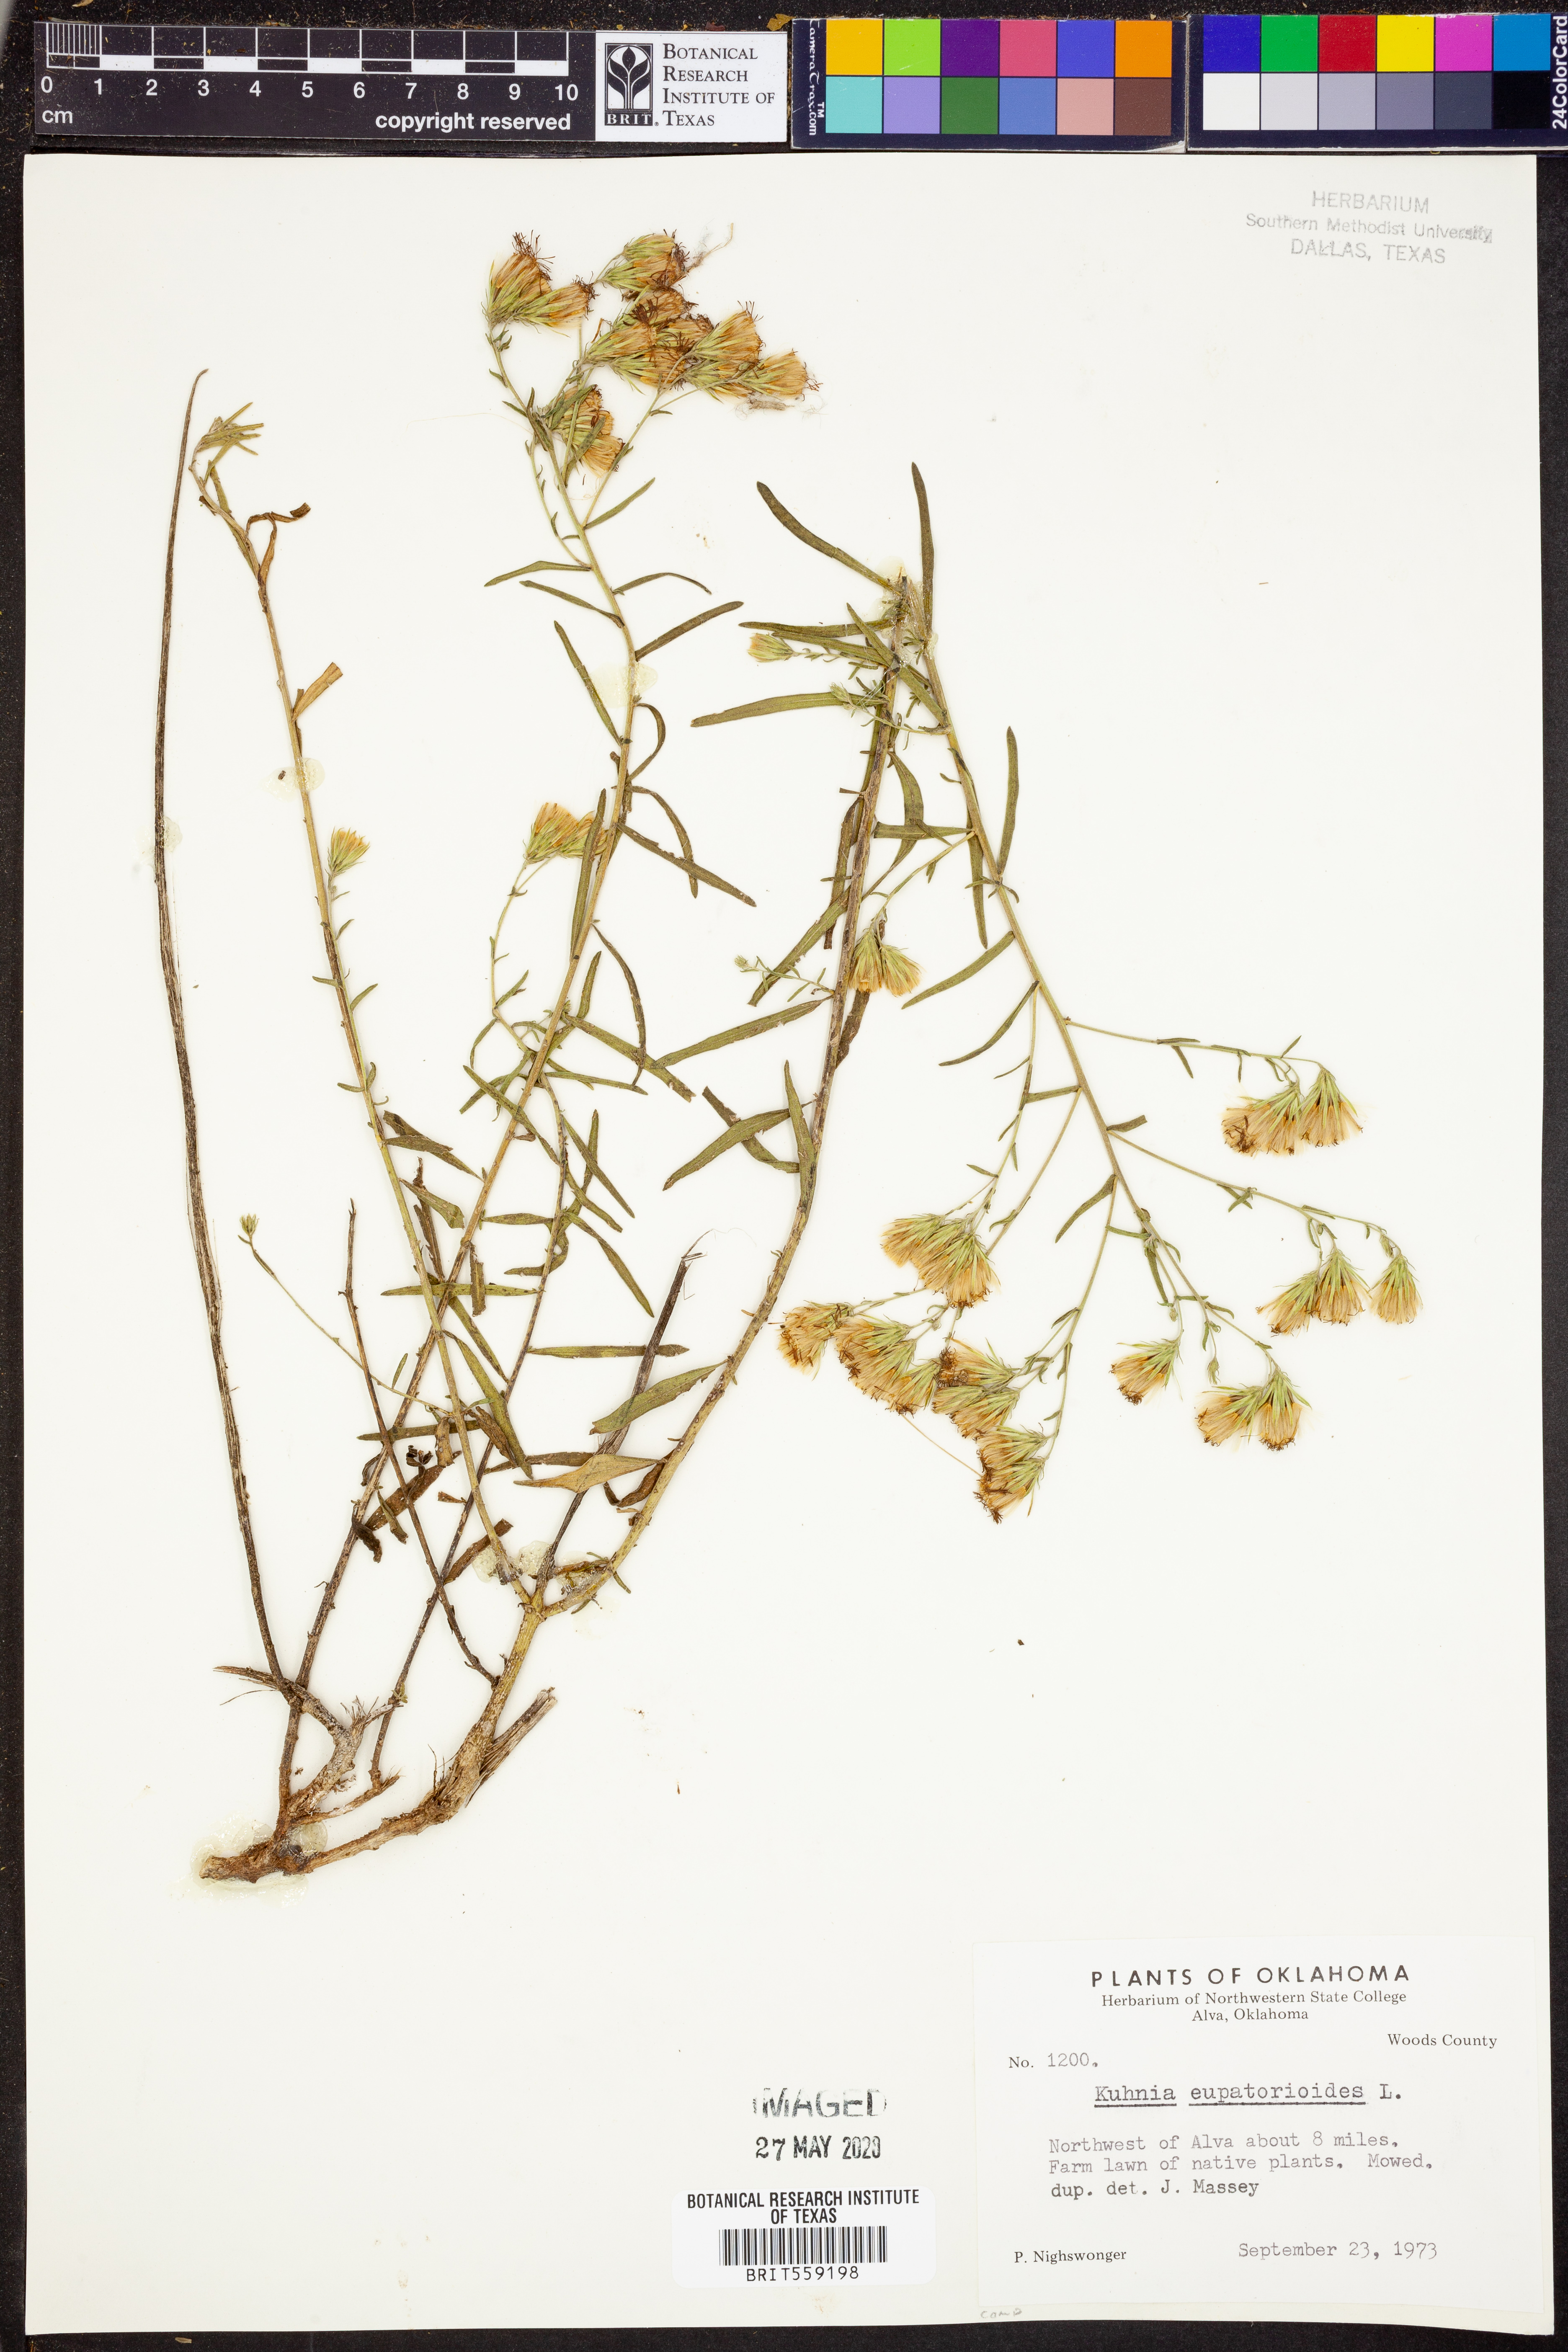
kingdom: Plantae
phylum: Tracheophyta
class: Magnoliopsida
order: Asterales
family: Asteraceae
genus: Brickellia
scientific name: Brickellia eupatorioides
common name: False boneset
